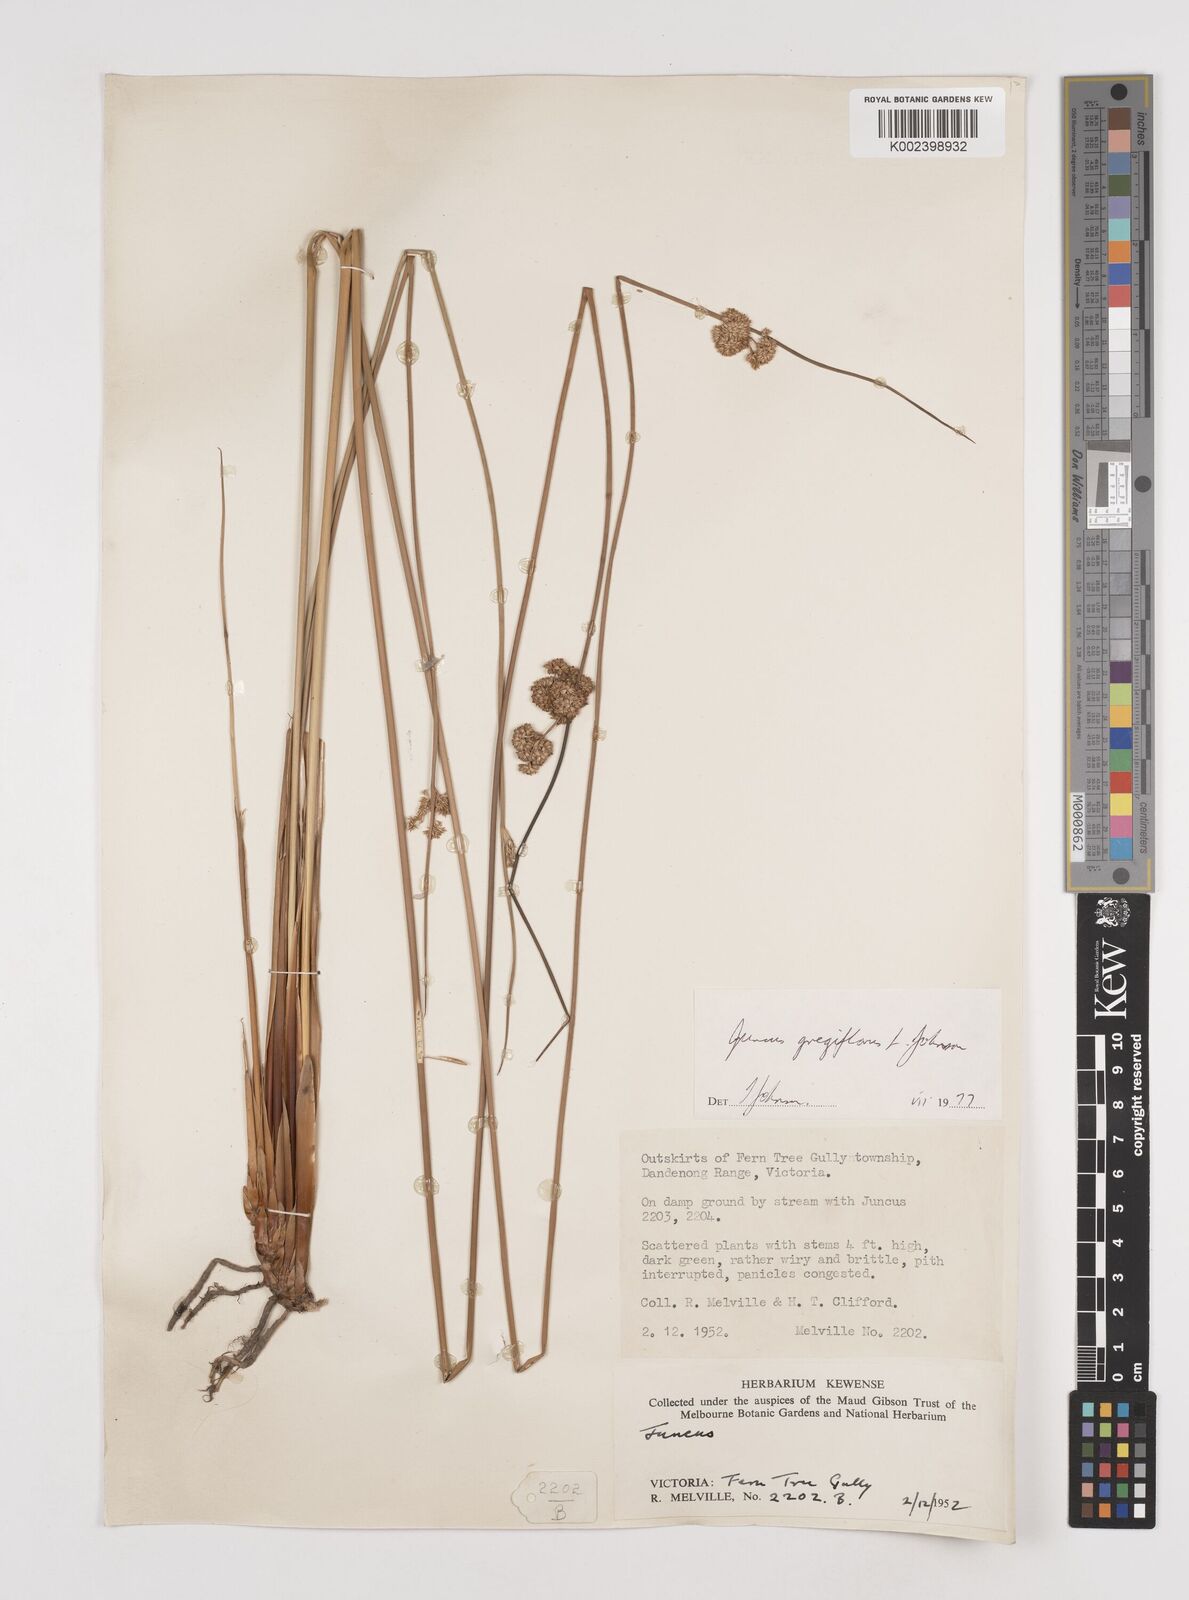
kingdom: Plantae
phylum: Tracheophyta
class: Liliopsida
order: Poales
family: Juncaceae
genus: Juncus
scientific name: Juncus gregiflorus
